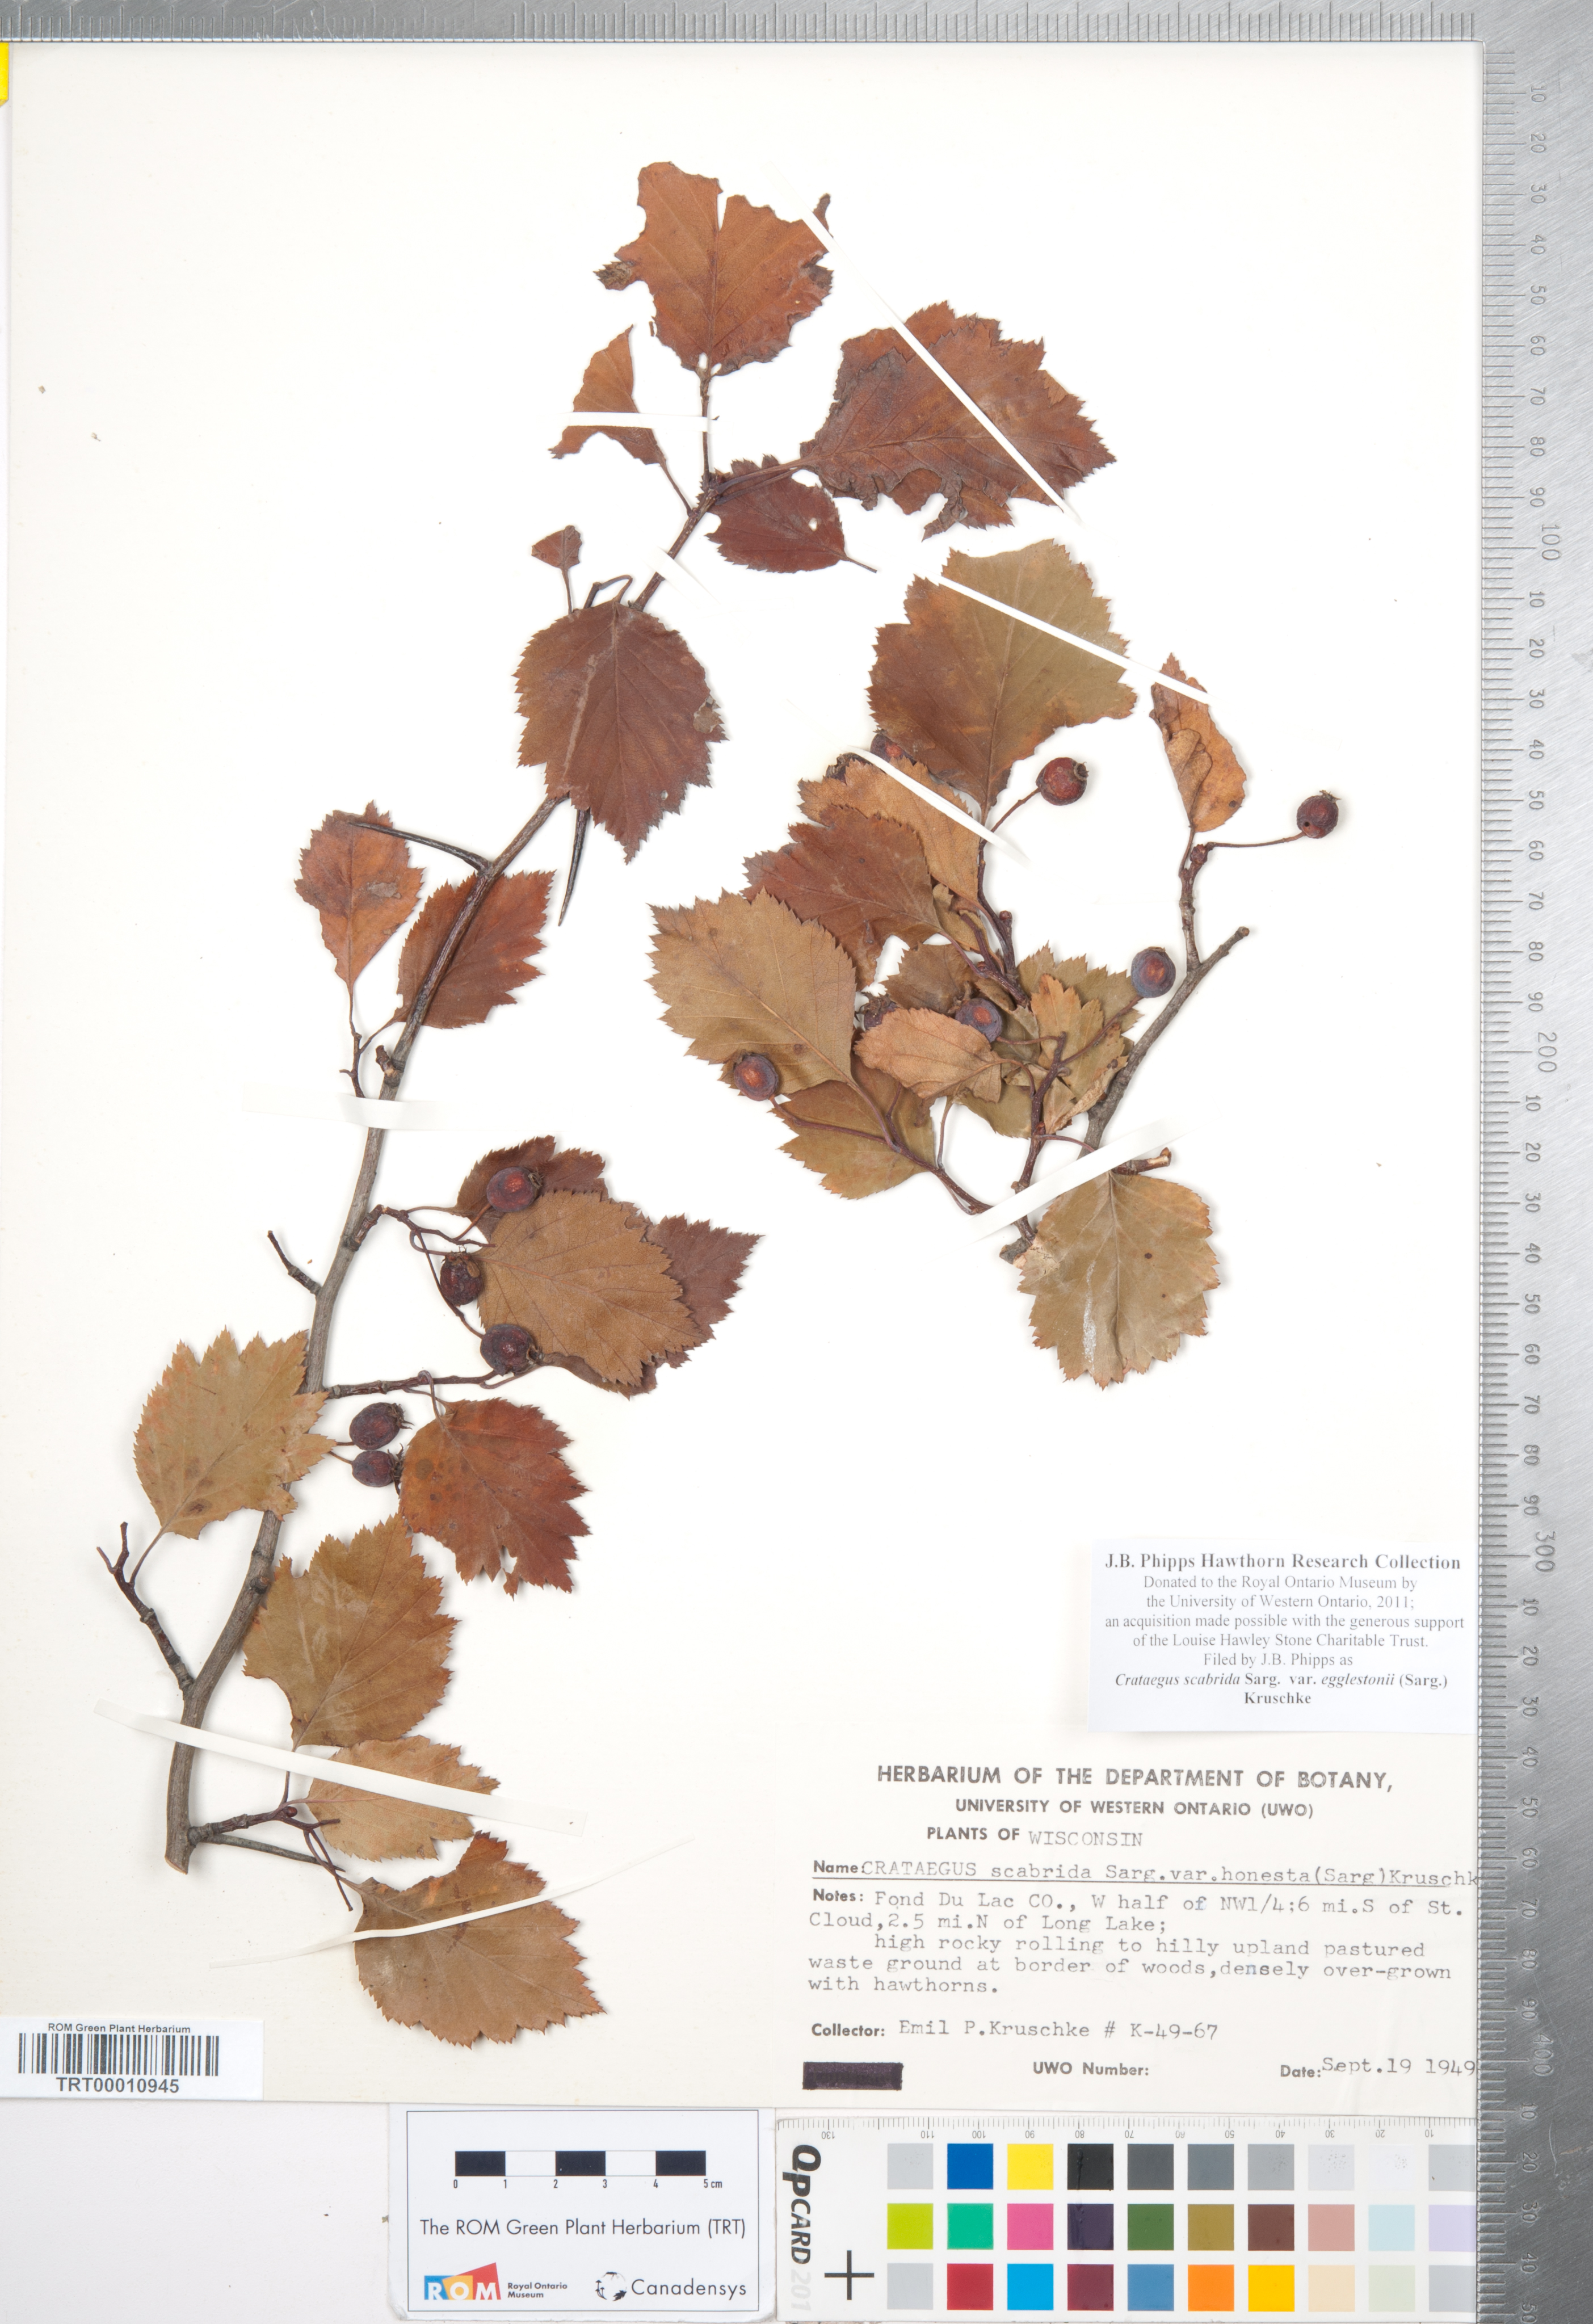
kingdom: Plantae
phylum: Tracheophyta
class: Magnoliopsida
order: Rosales
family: Rosaceae
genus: Crataegus
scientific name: Crataegus scabrida
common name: Rough hawthorn
